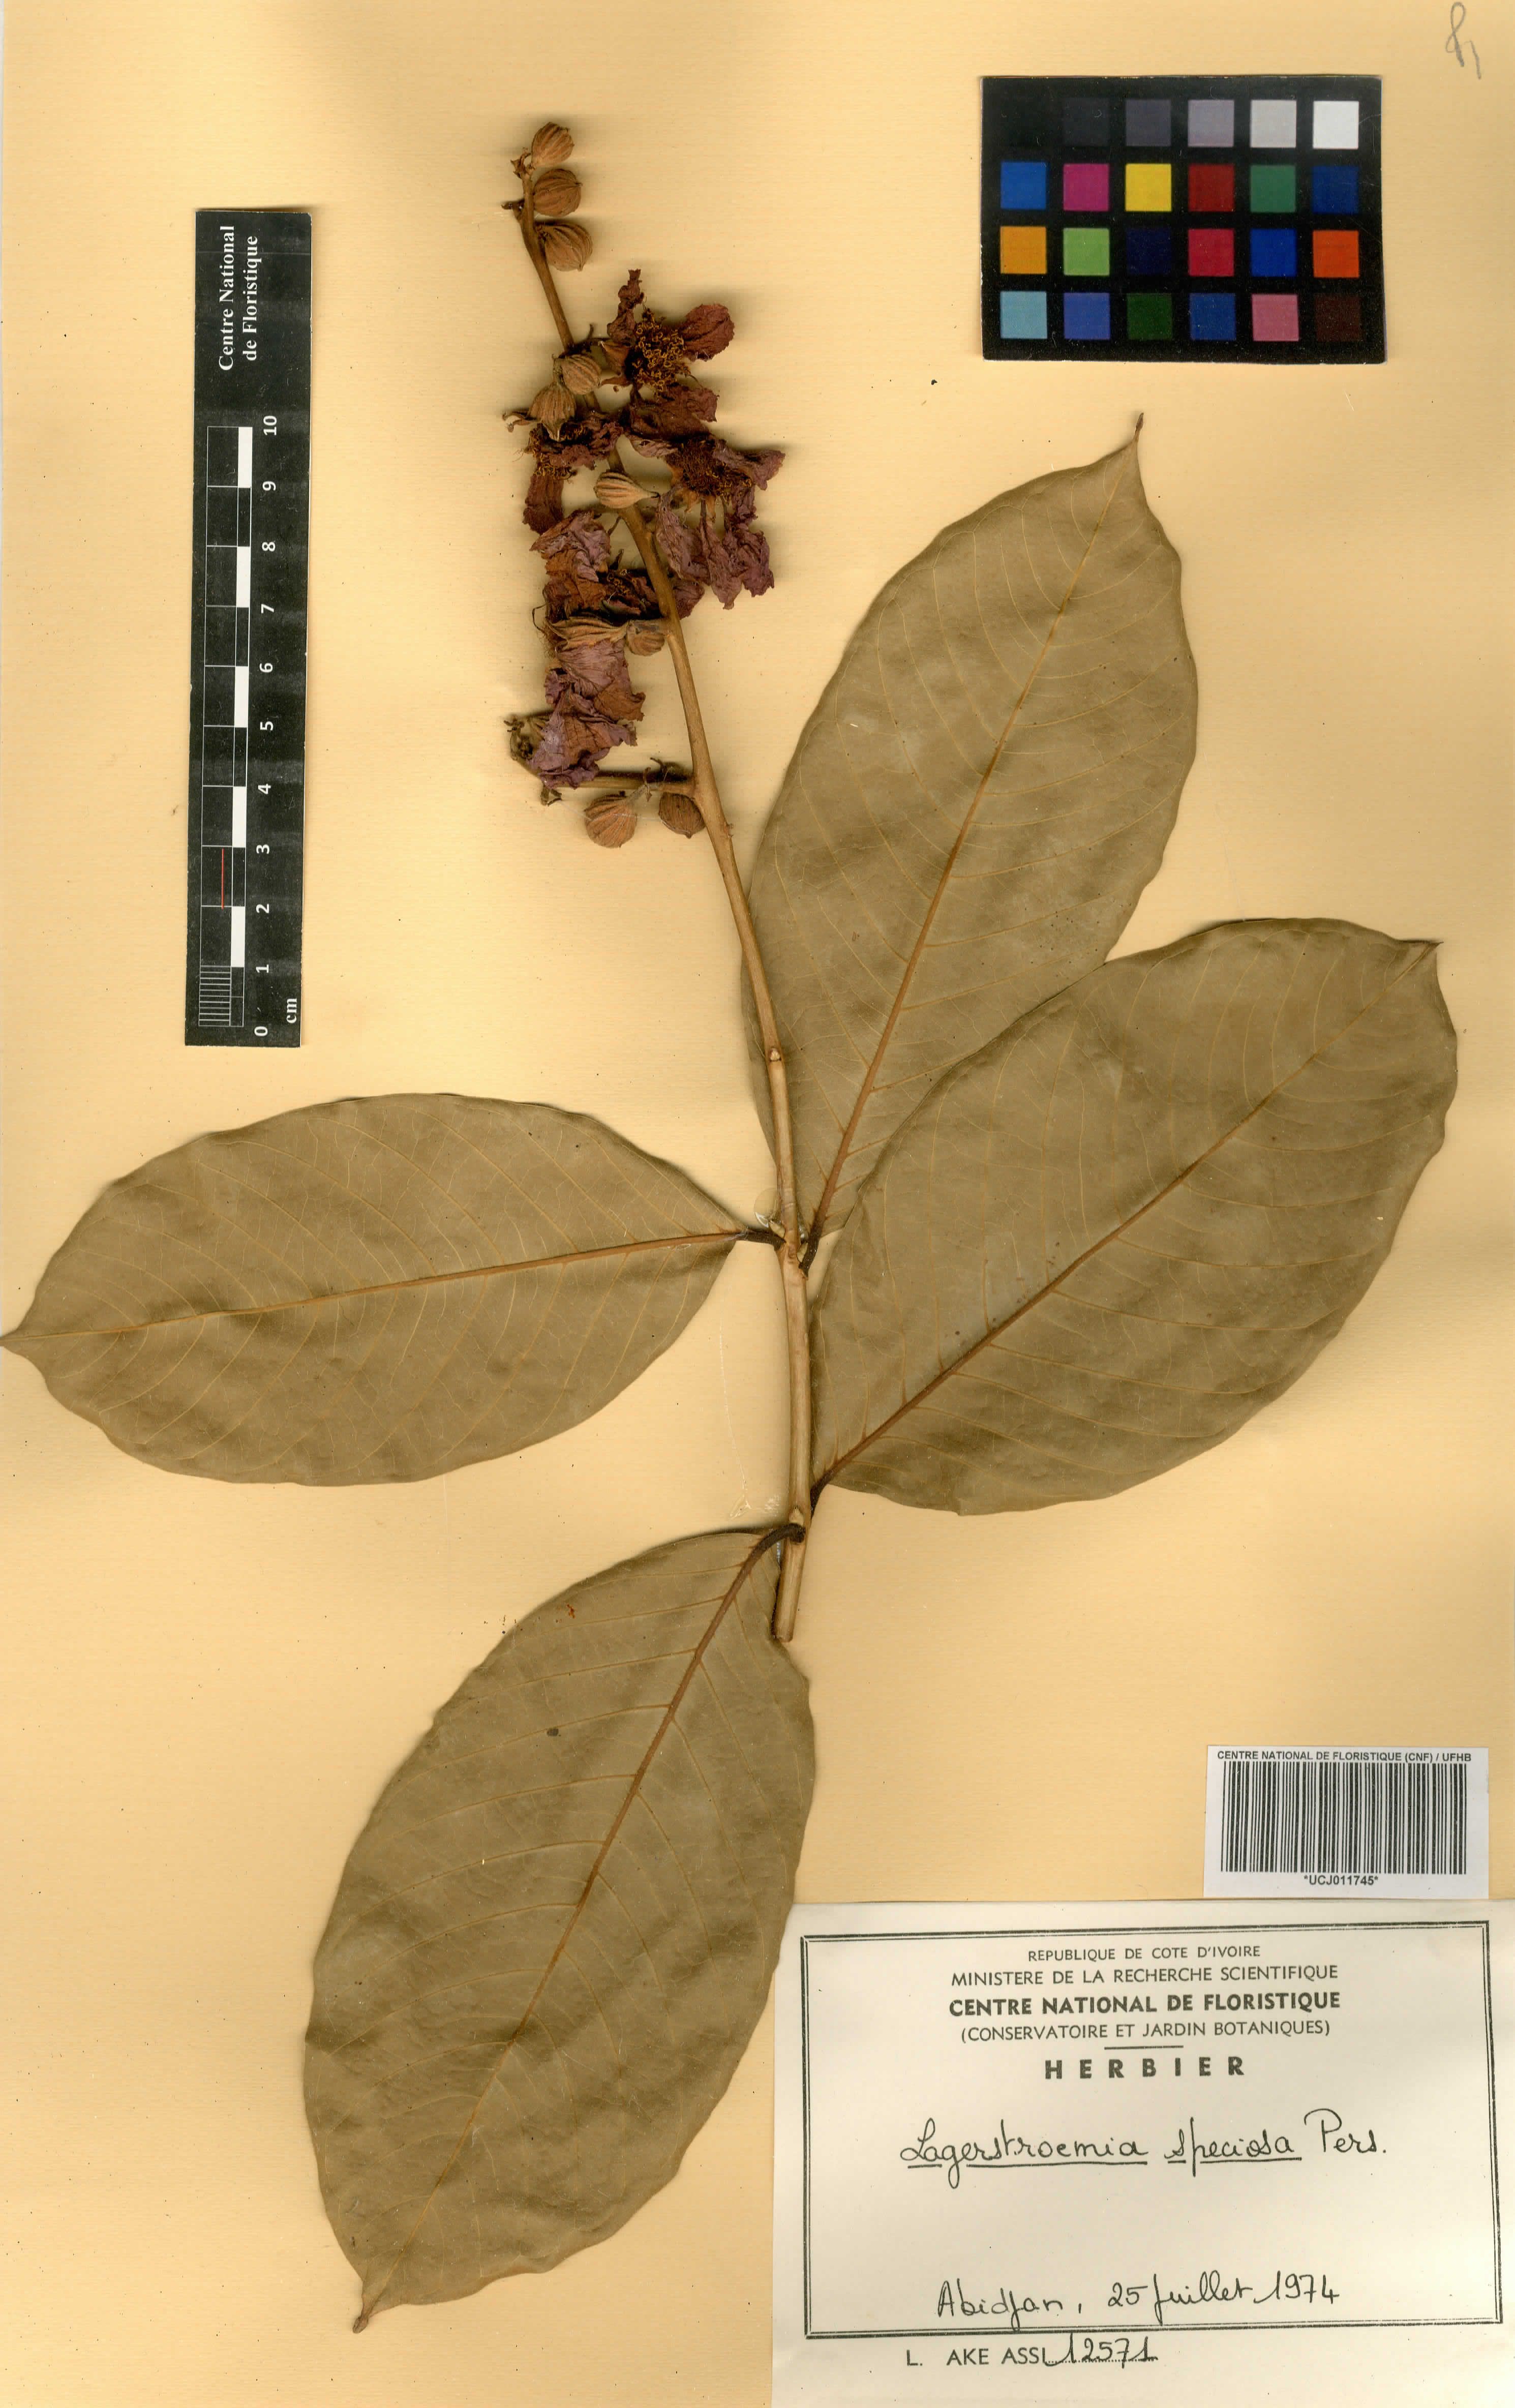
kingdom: Plantae
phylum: Tracheophyta
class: Magnoliopsida
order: Myrtales
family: Lythraceae
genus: Lagerstroemia
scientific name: Lagerstroemia speciosa
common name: Queen's crape-myrtle
